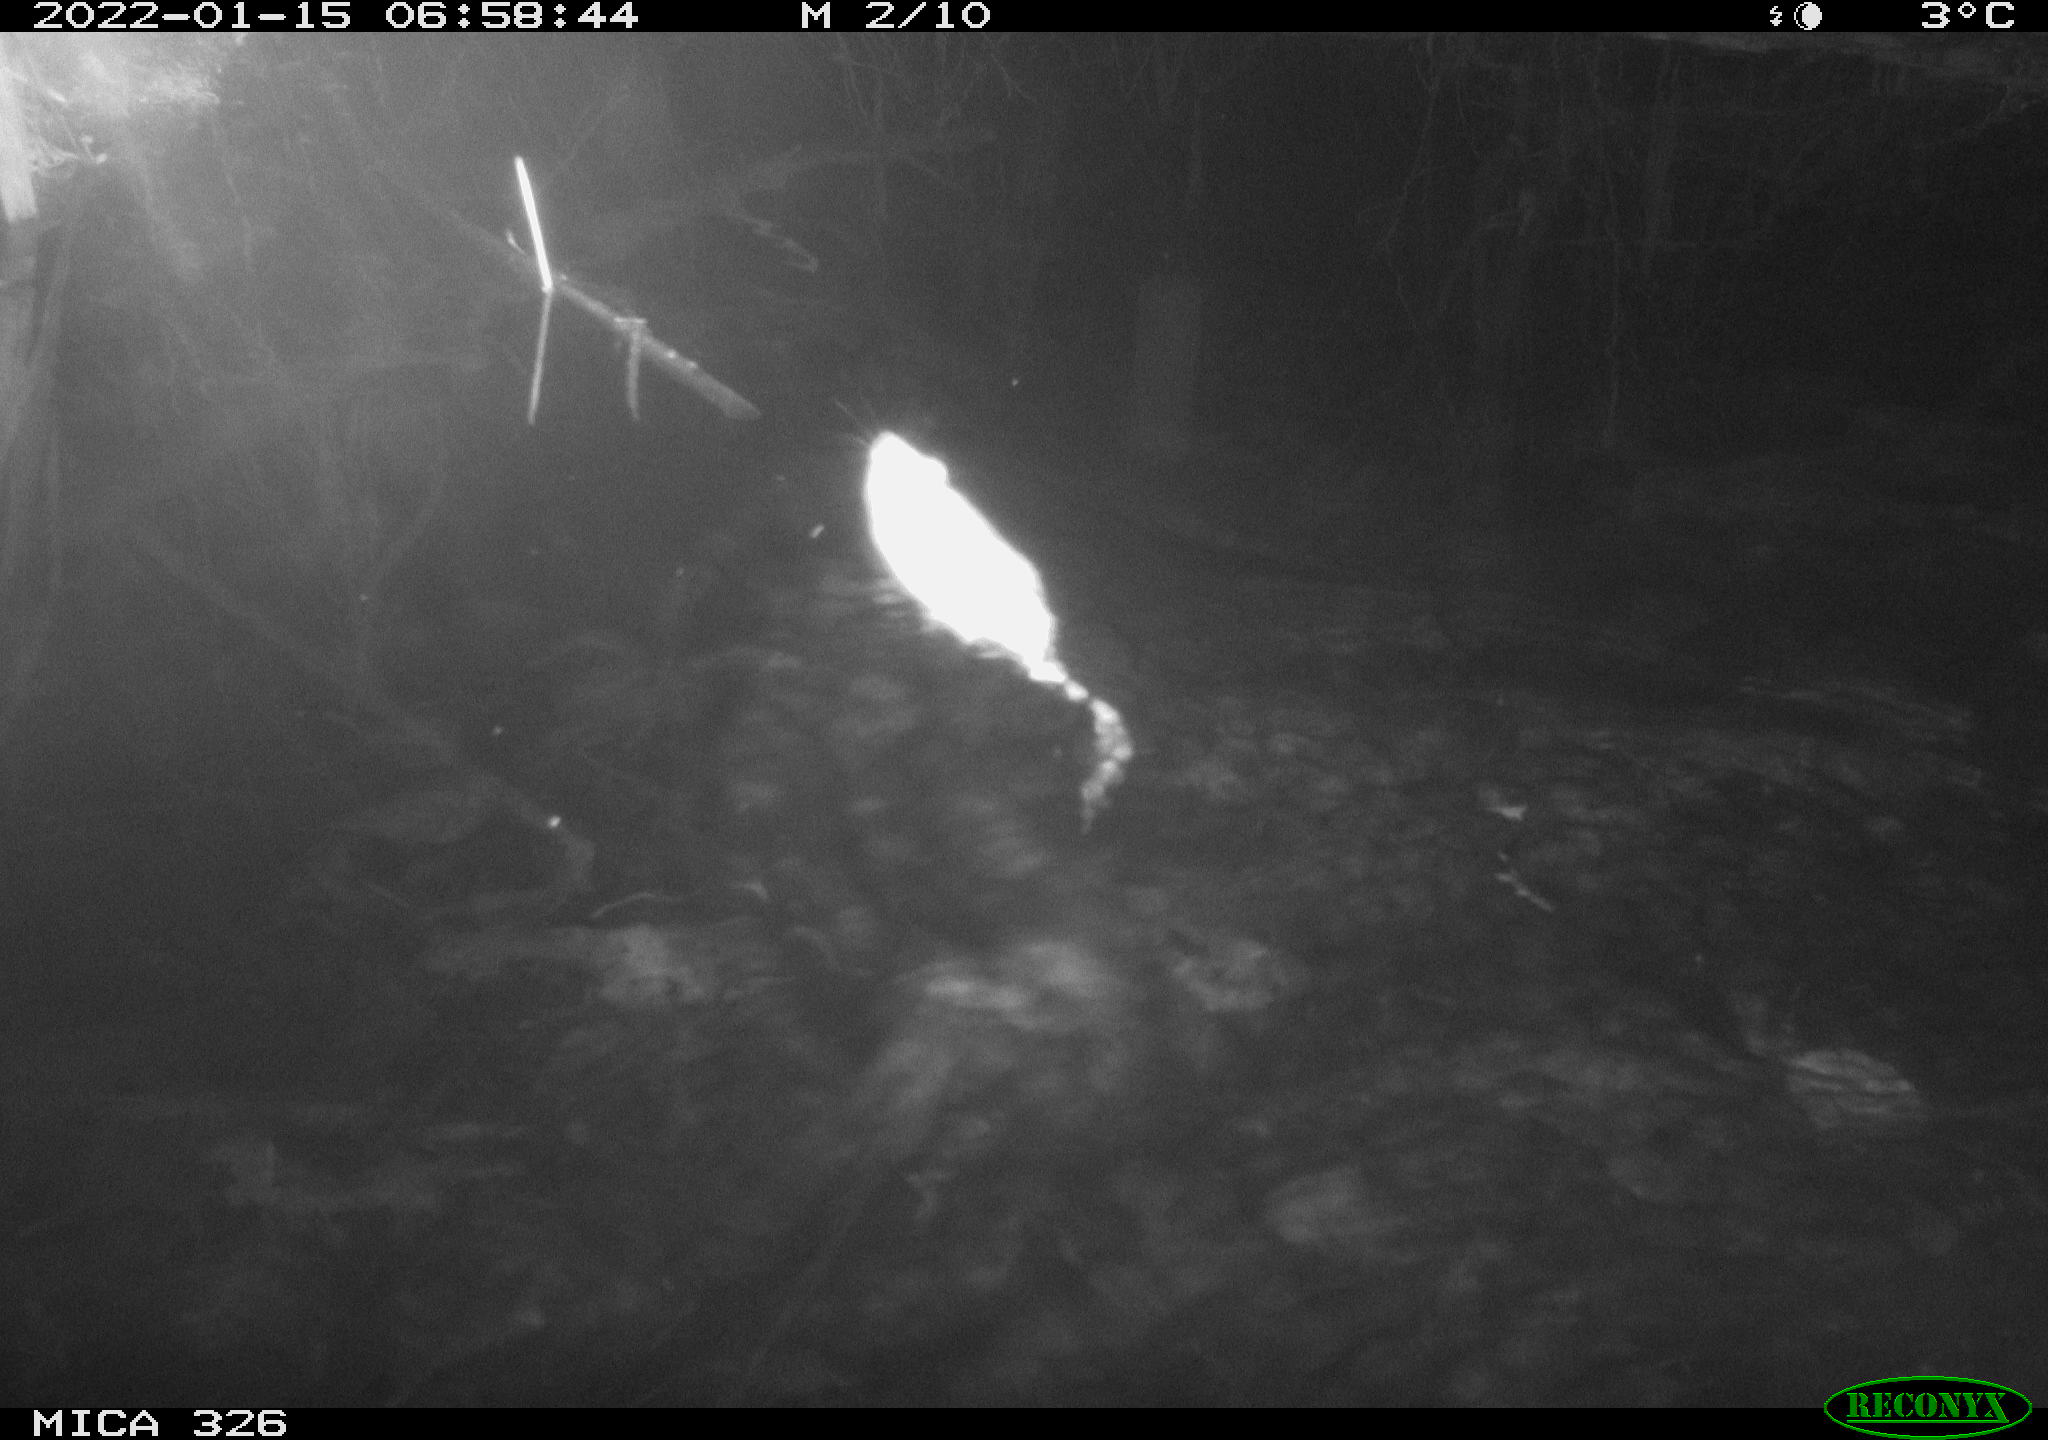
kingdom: Animalia
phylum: Chordata
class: Mammalia
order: Rodentia
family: Muridae
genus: Rattus
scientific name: Rattus norvegicus
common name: Brown rat
